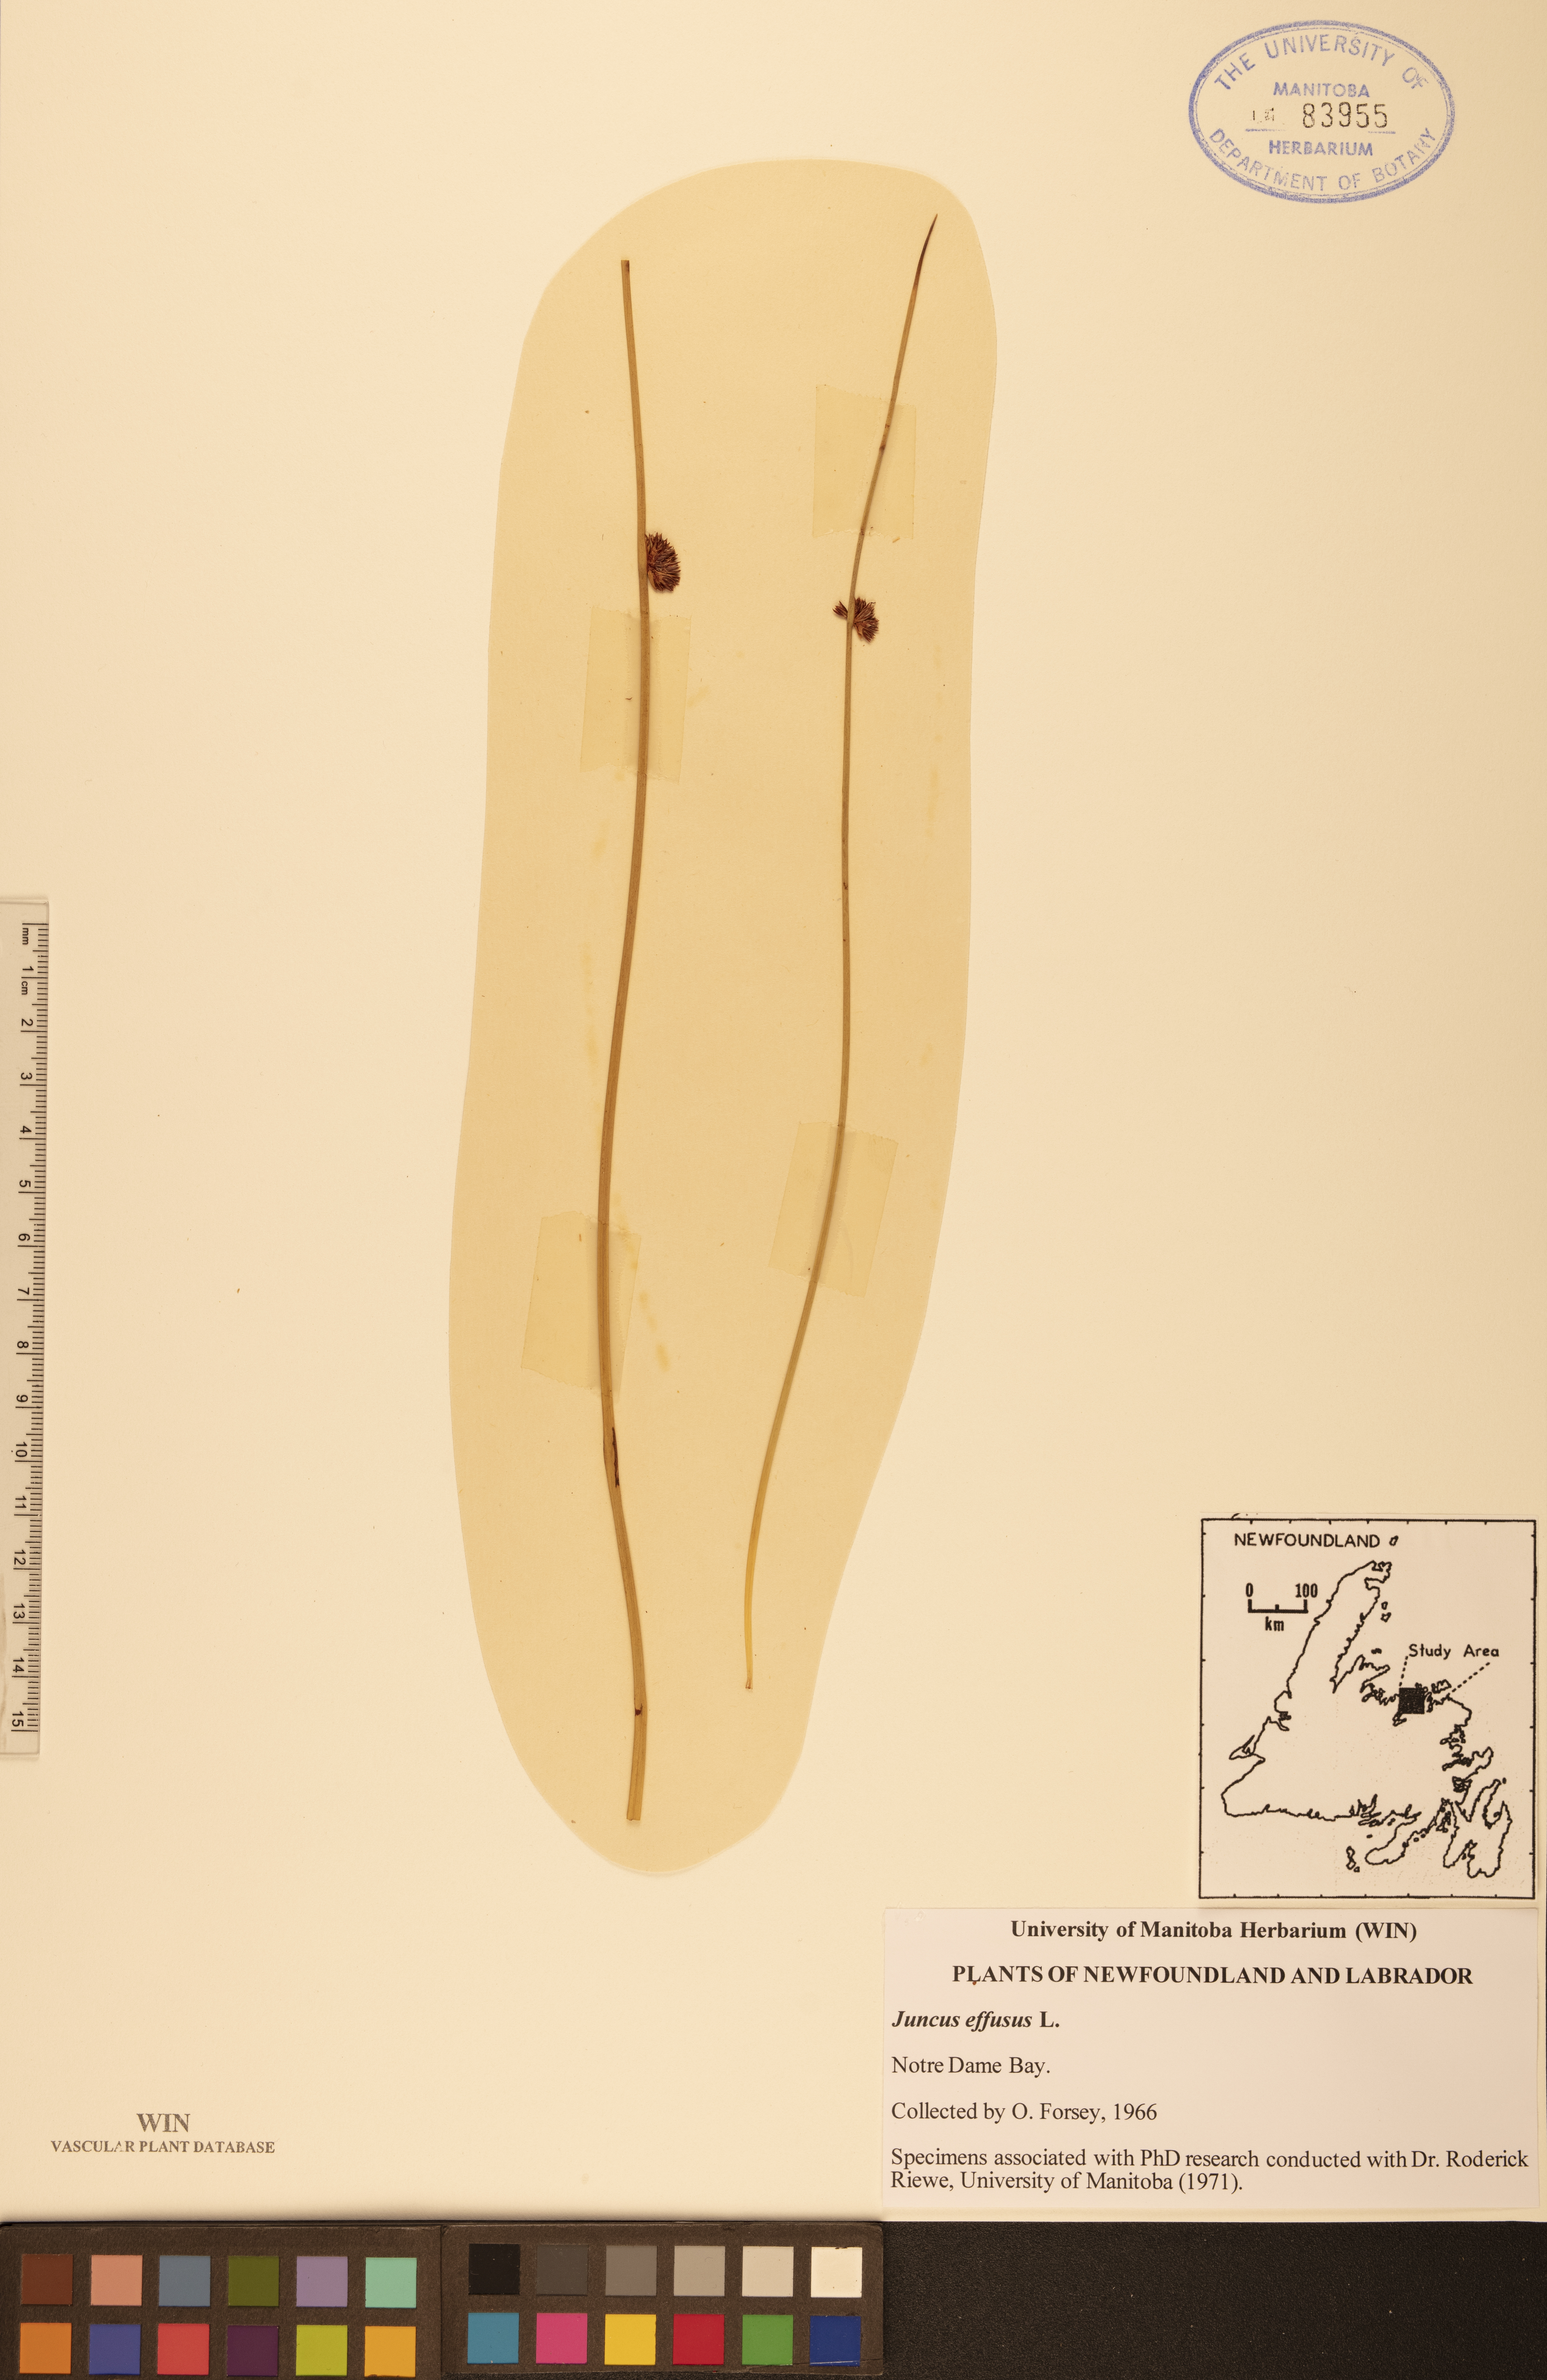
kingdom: Plantae
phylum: Tracheophyta
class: Liliopsida
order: Poales
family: Juncaceae
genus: Juncus
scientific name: Juncus effusus
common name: Soft rush
